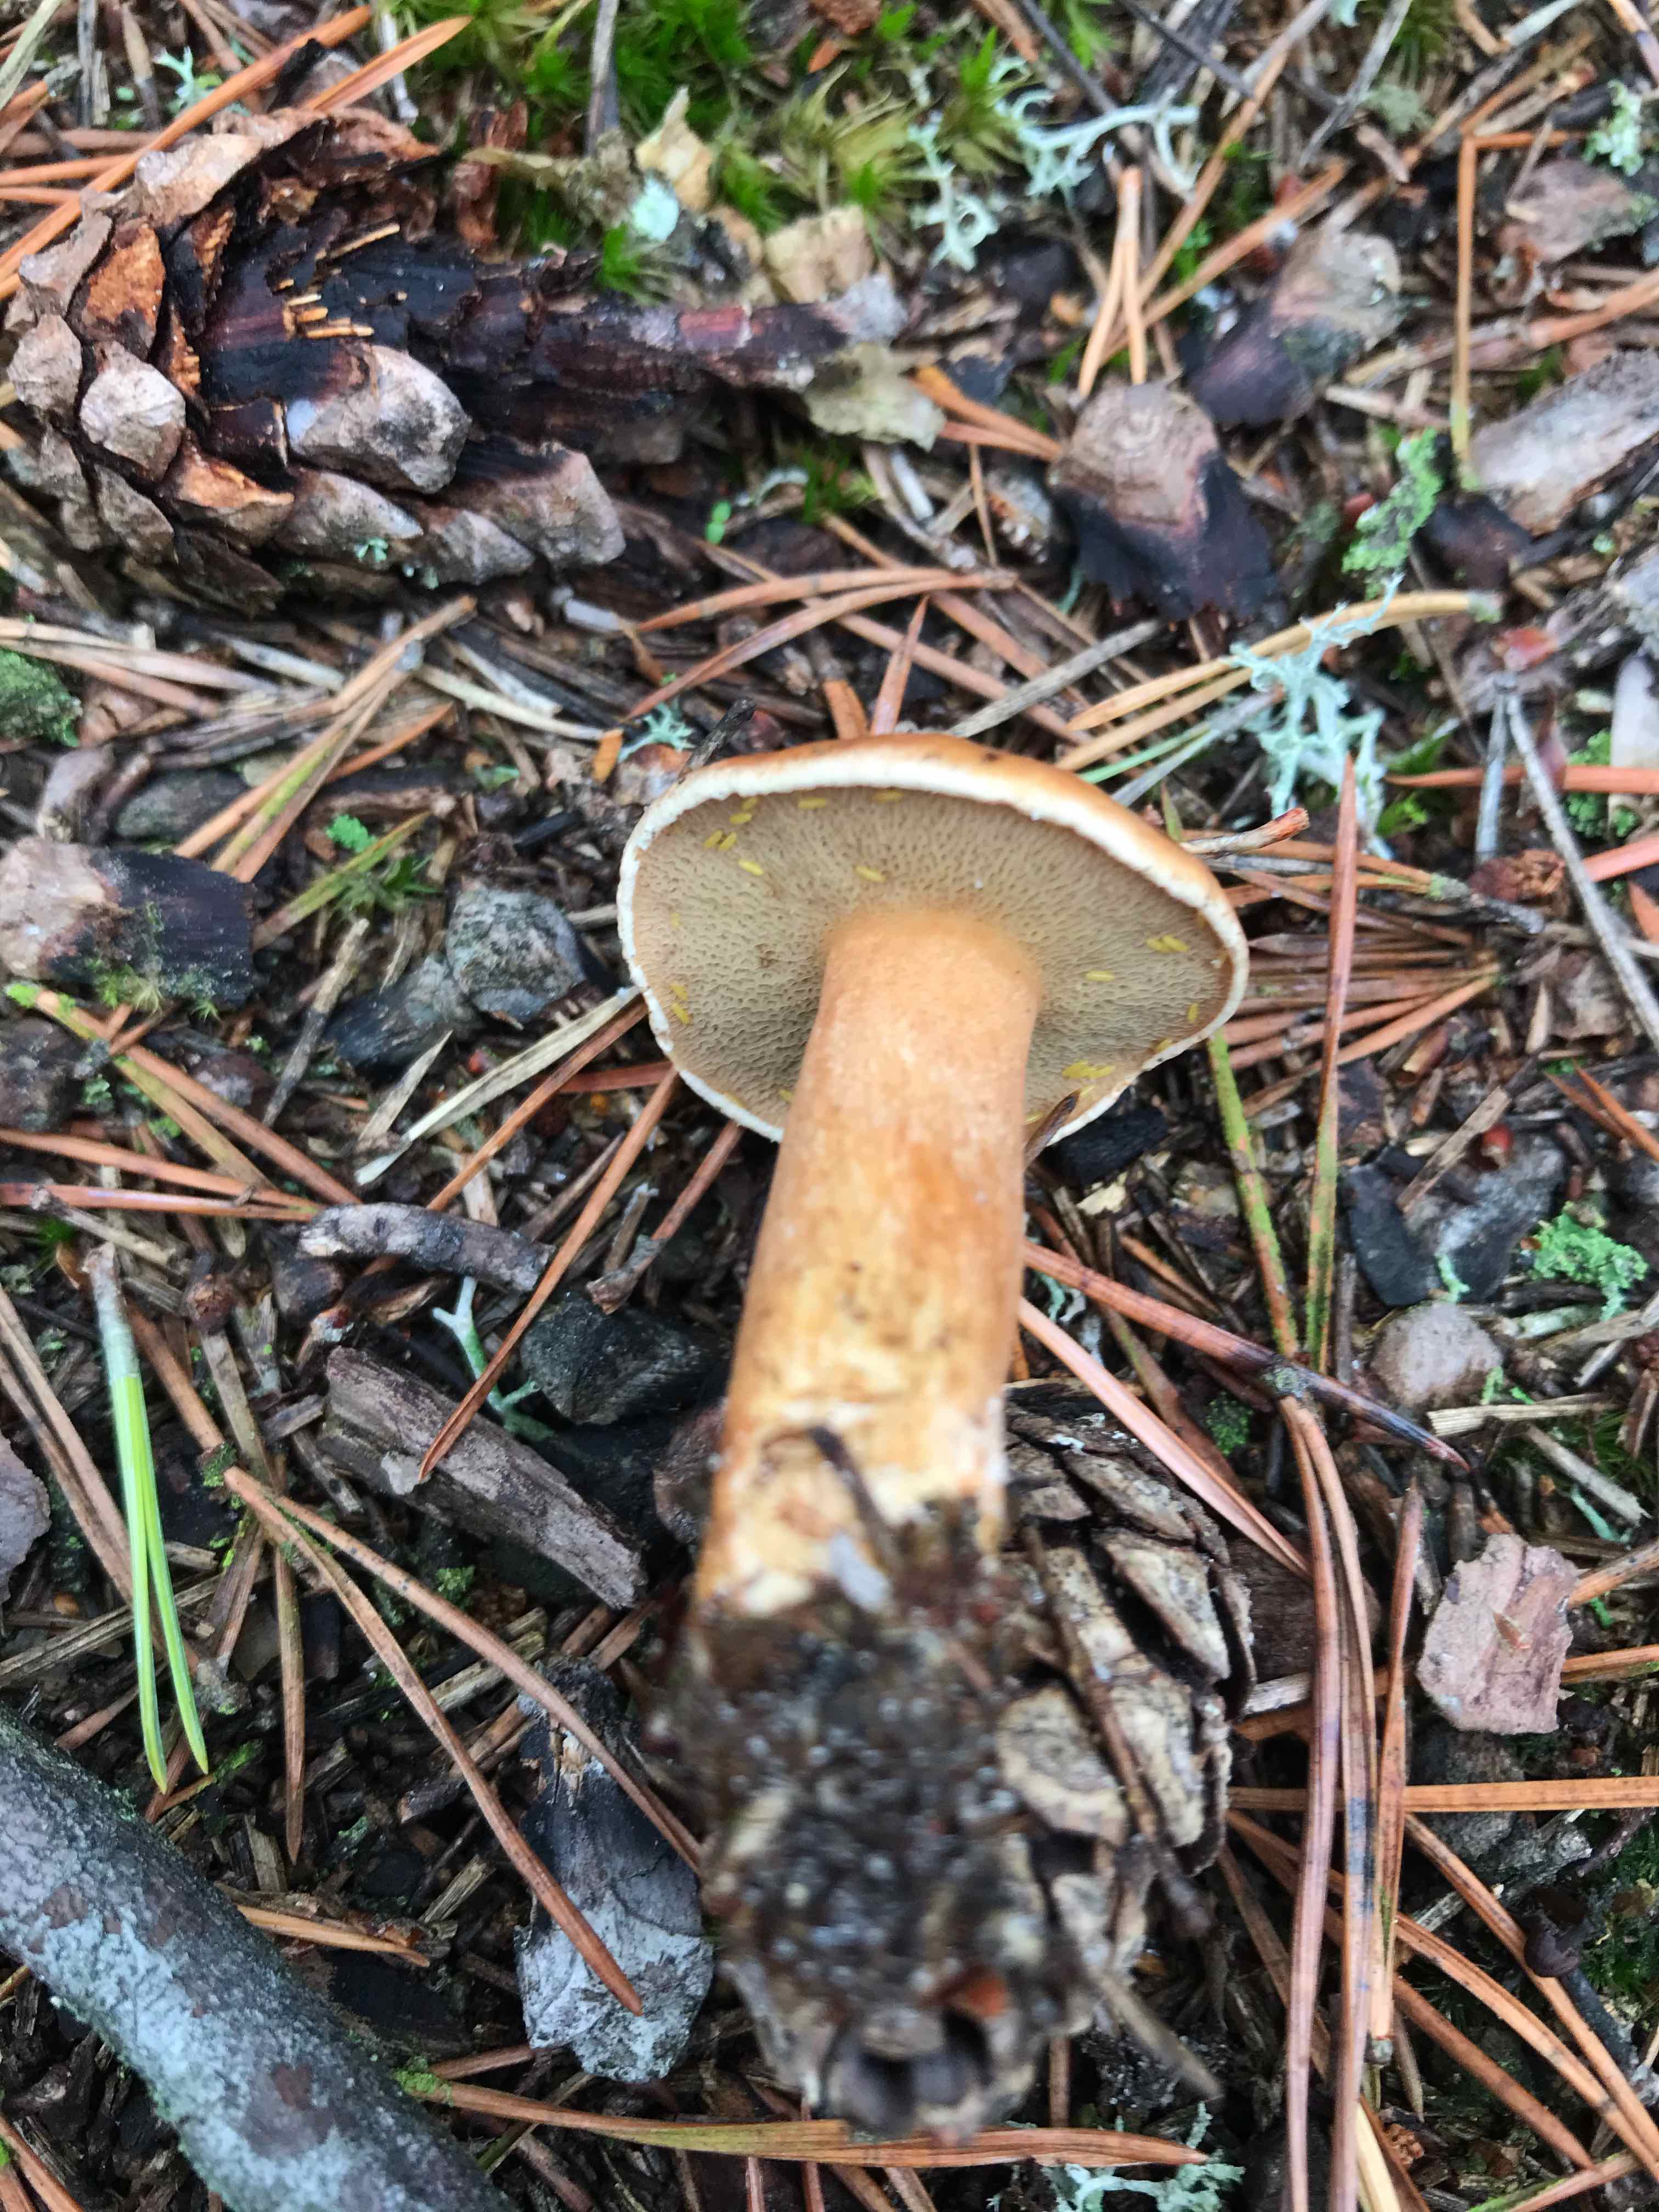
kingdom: Fungi
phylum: Basidiomycota
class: Agaricomycetes
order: Boletales
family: Suillaceae
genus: Suillus
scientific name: Suillus bovinus
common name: grovporet slimrørhat
